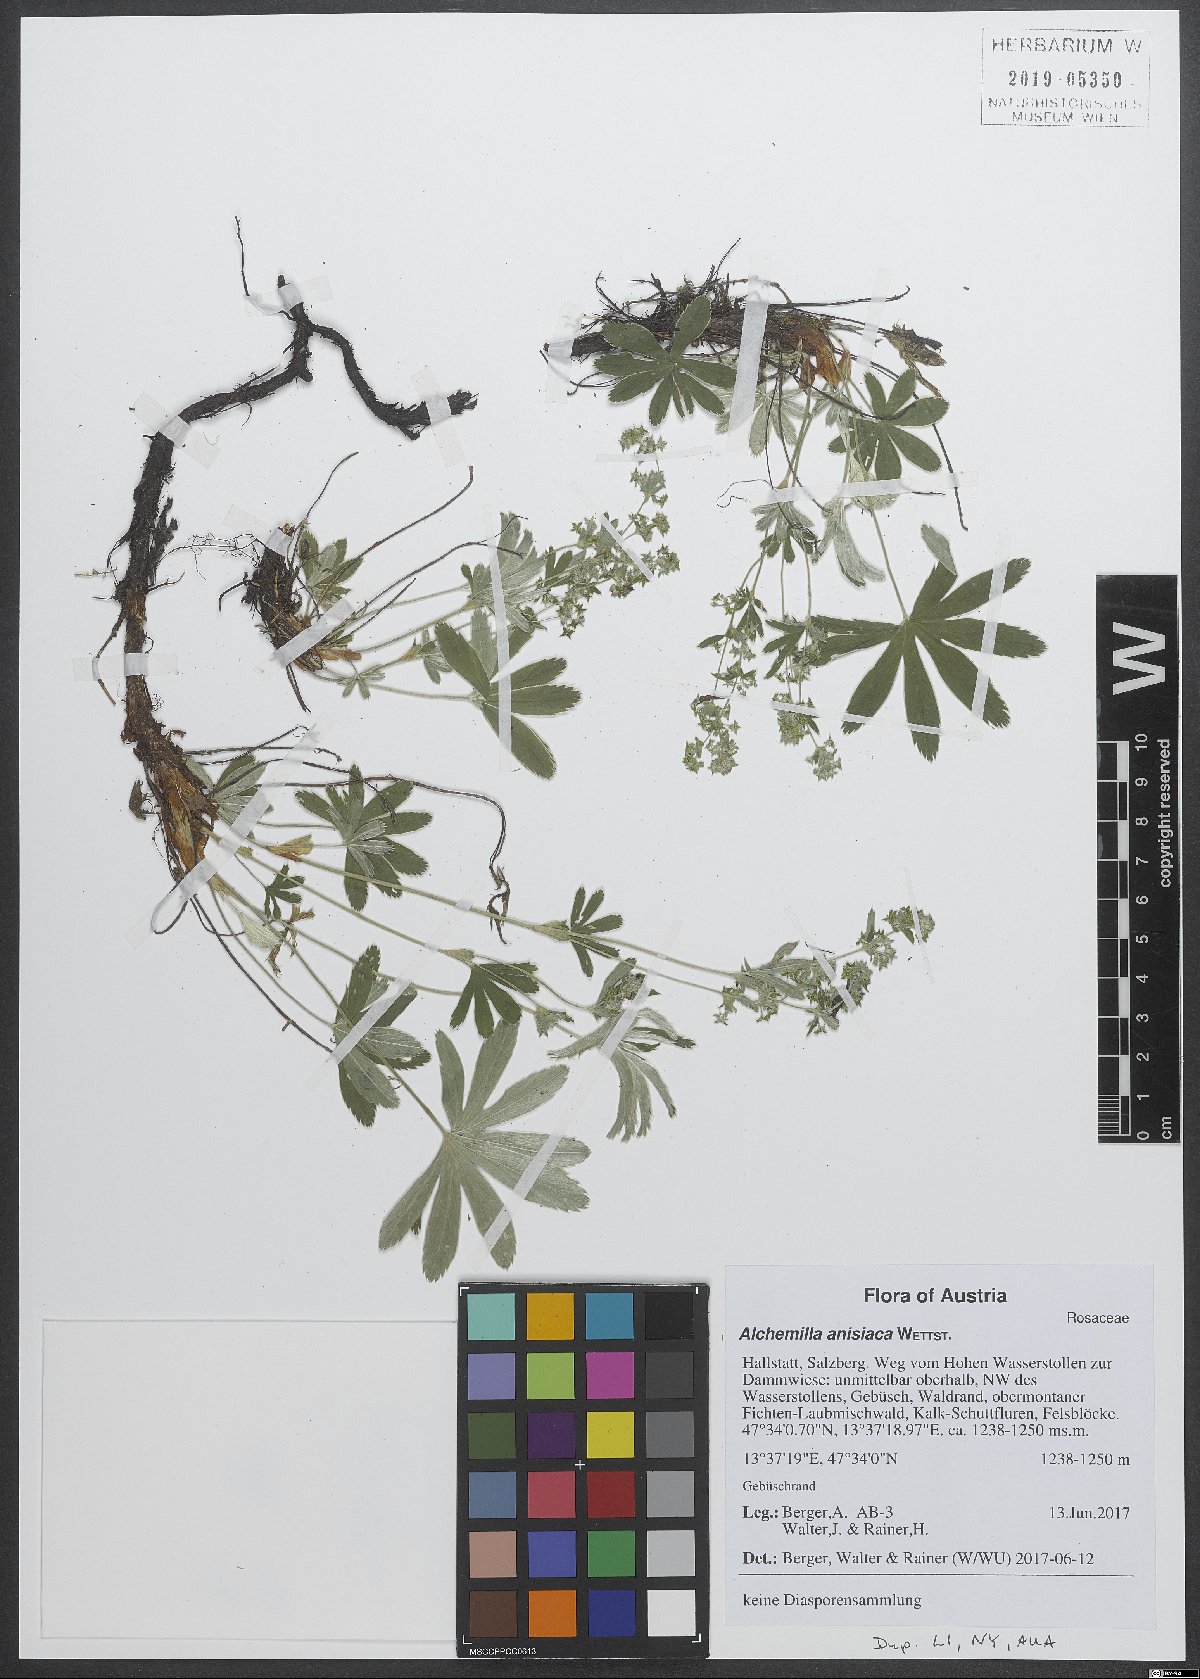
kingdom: Plantae
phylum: Tracheophyta
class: Magnoliopsida
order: Rosales
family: Rosaceae
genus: Alchemilla
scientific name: Alchemilla anisiaca
